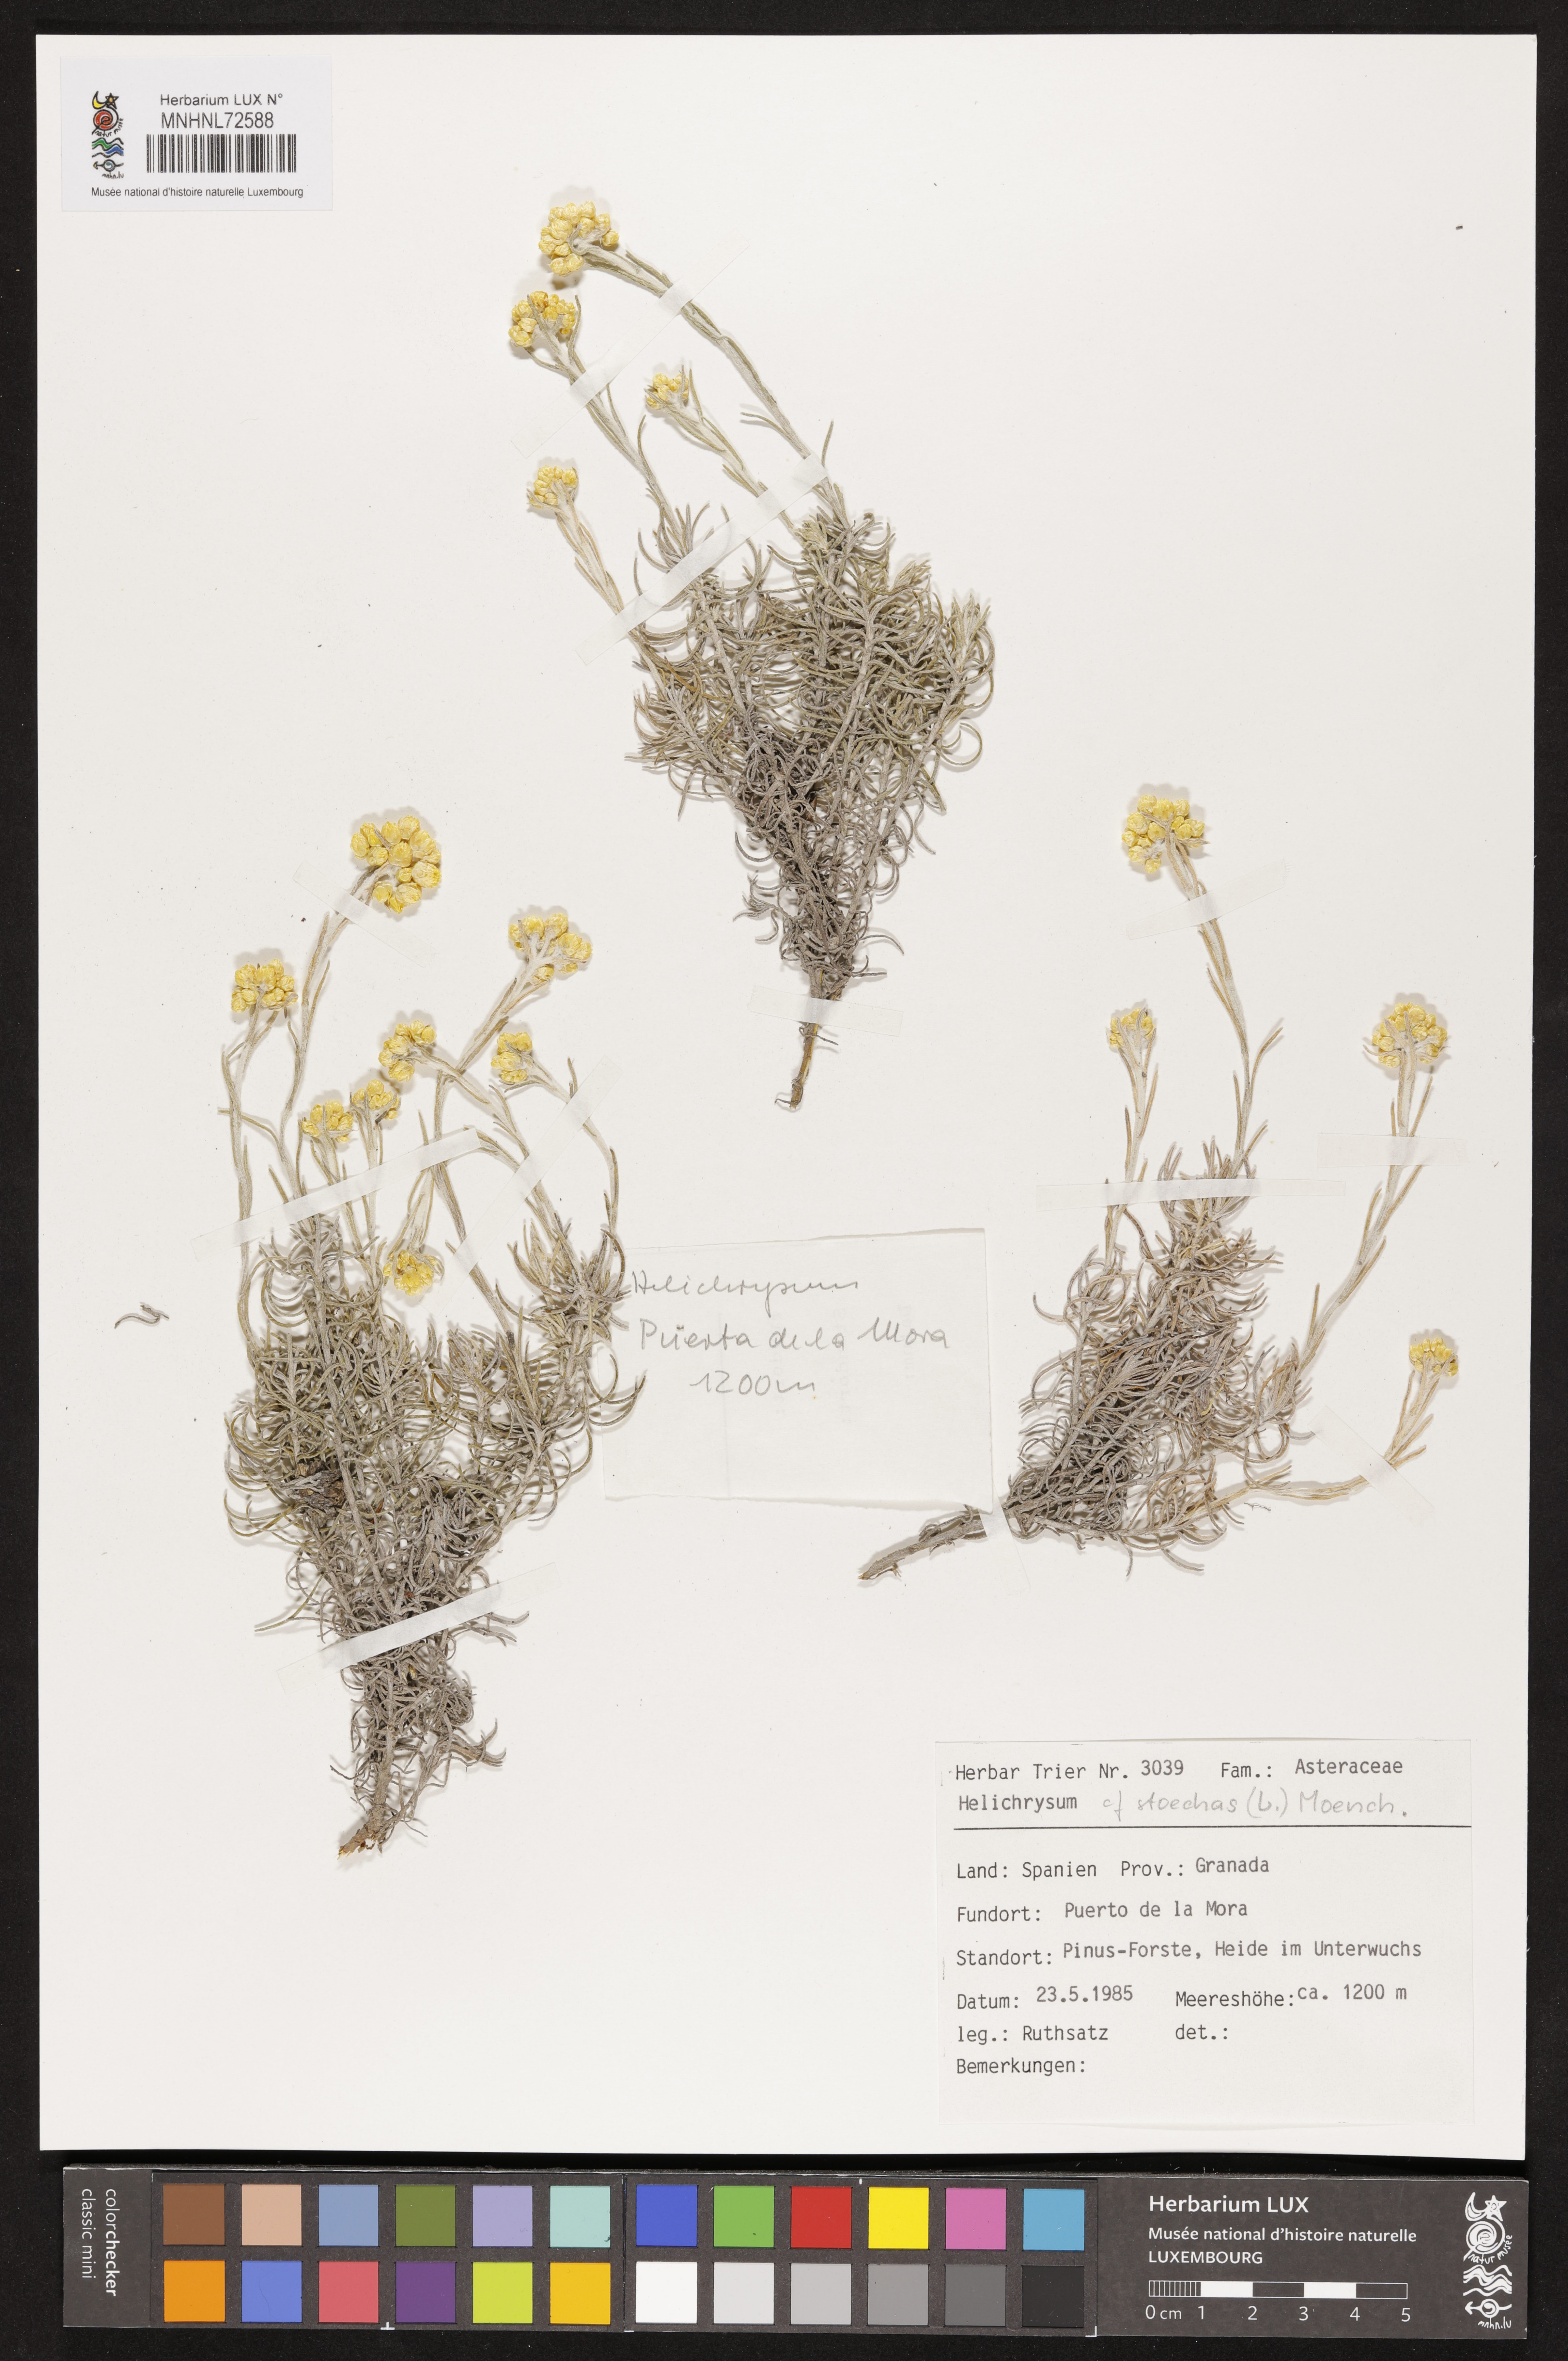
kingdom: Plantae
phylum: Tracheophyta
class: Magnoliopsida
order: Asterales
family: Asteraceae
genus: Helichrysum
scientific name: Helichrysum stoechas
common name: Goldilocks
